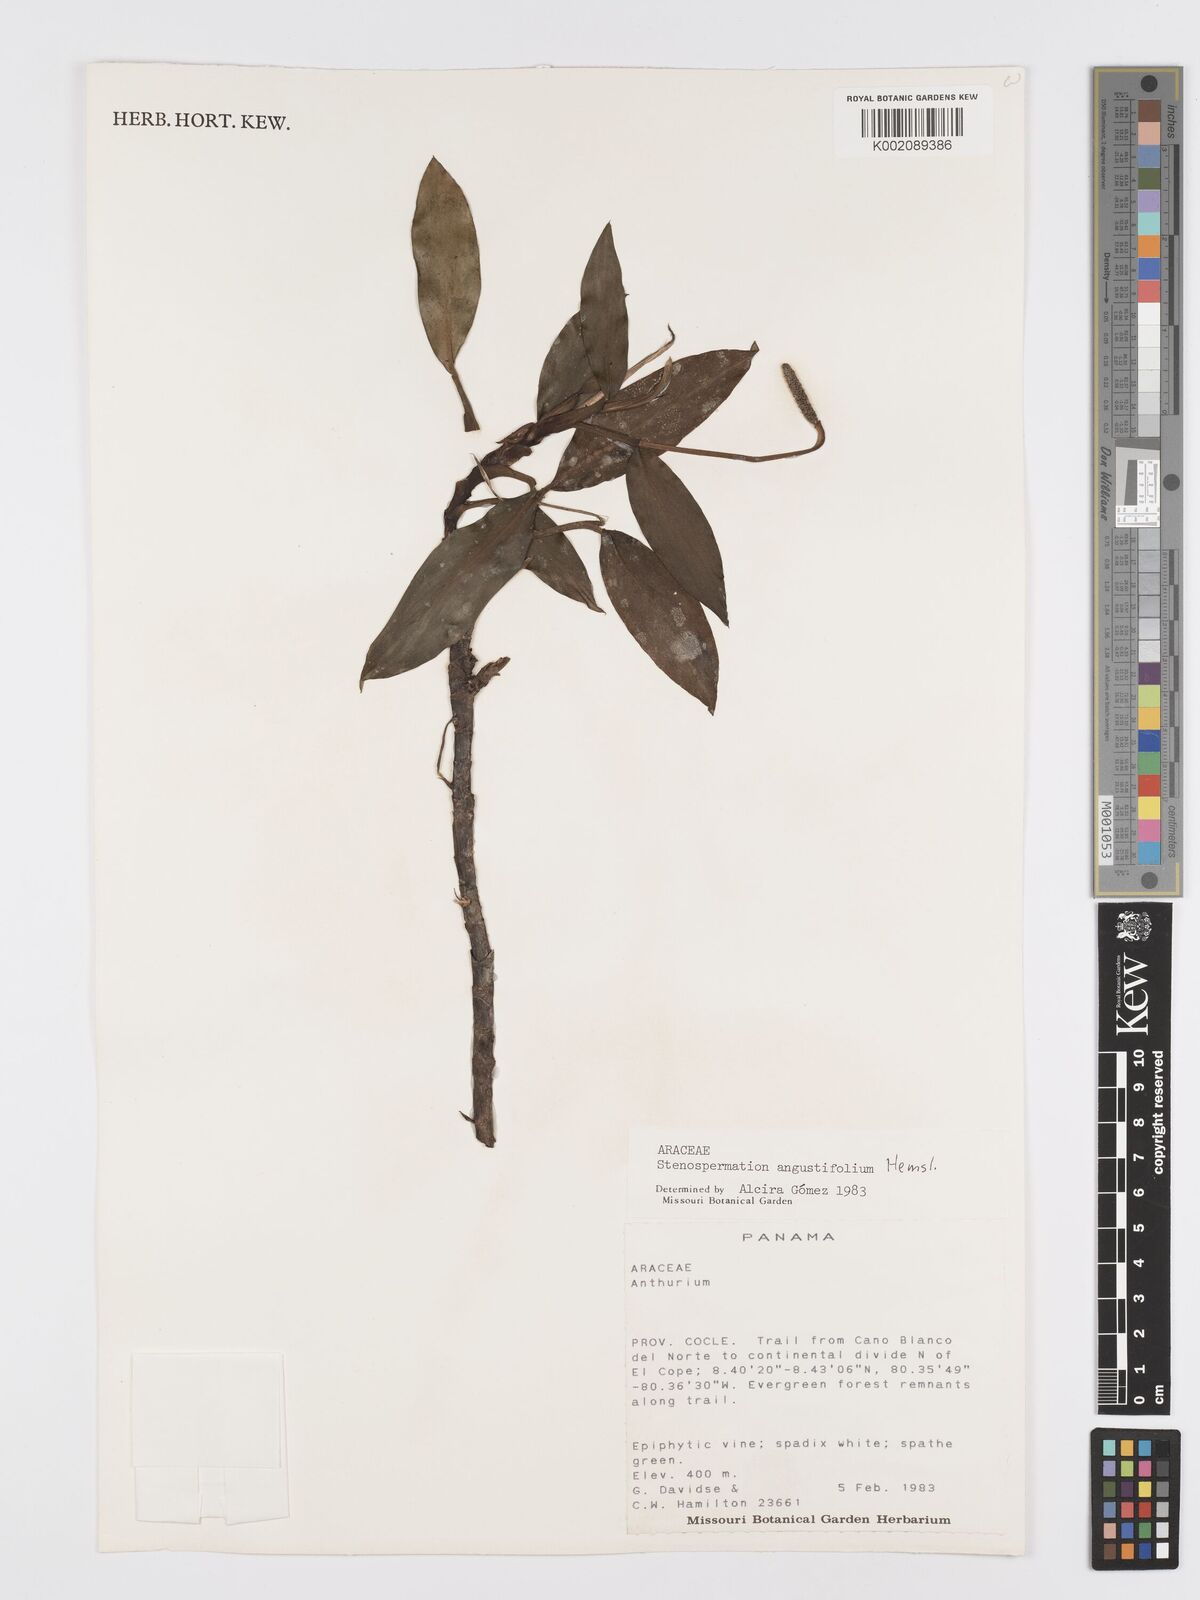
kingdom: Plantae
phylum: Tracheophyta
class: Liliopsida
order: Alismatales
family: Araceae
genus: Stenospermation
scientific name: Stenospermation angustifolium
